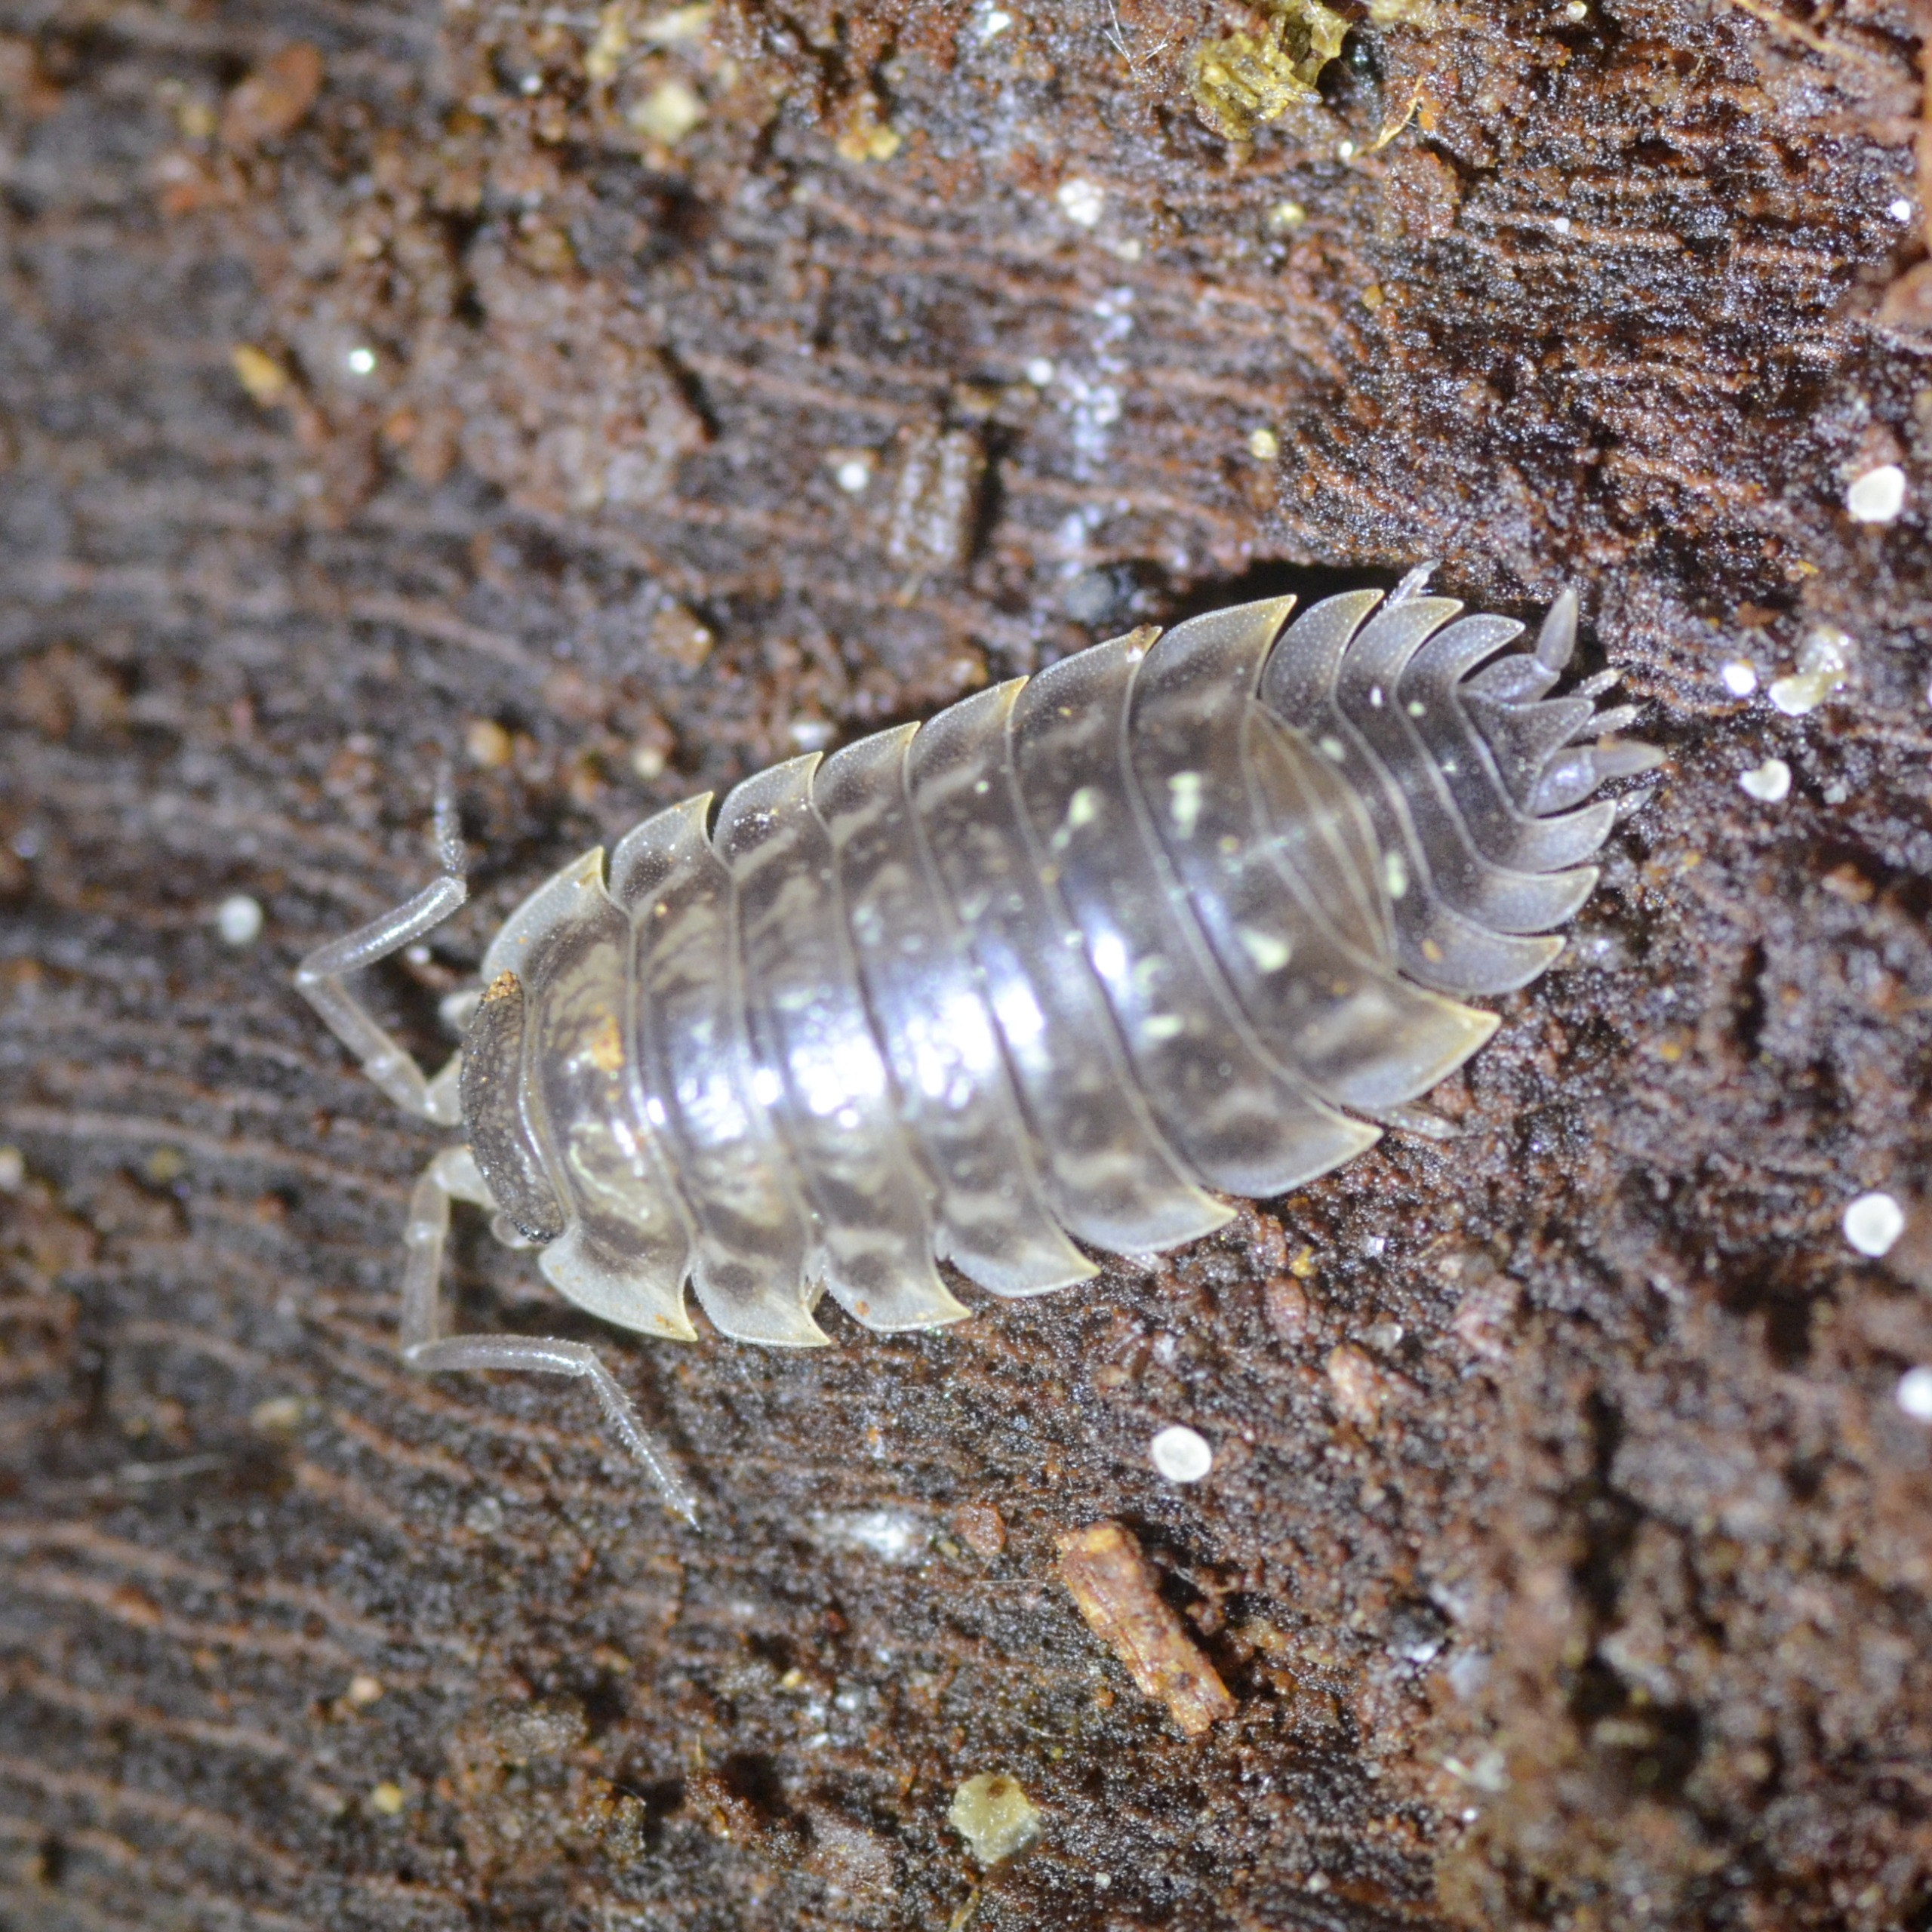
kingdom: Animalia
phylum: Arthropoda
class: Malacostraca
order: Isopoda
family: Oniscidae
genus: Oniscus
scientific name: Oniscus asellus
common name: Glat bænkebider
